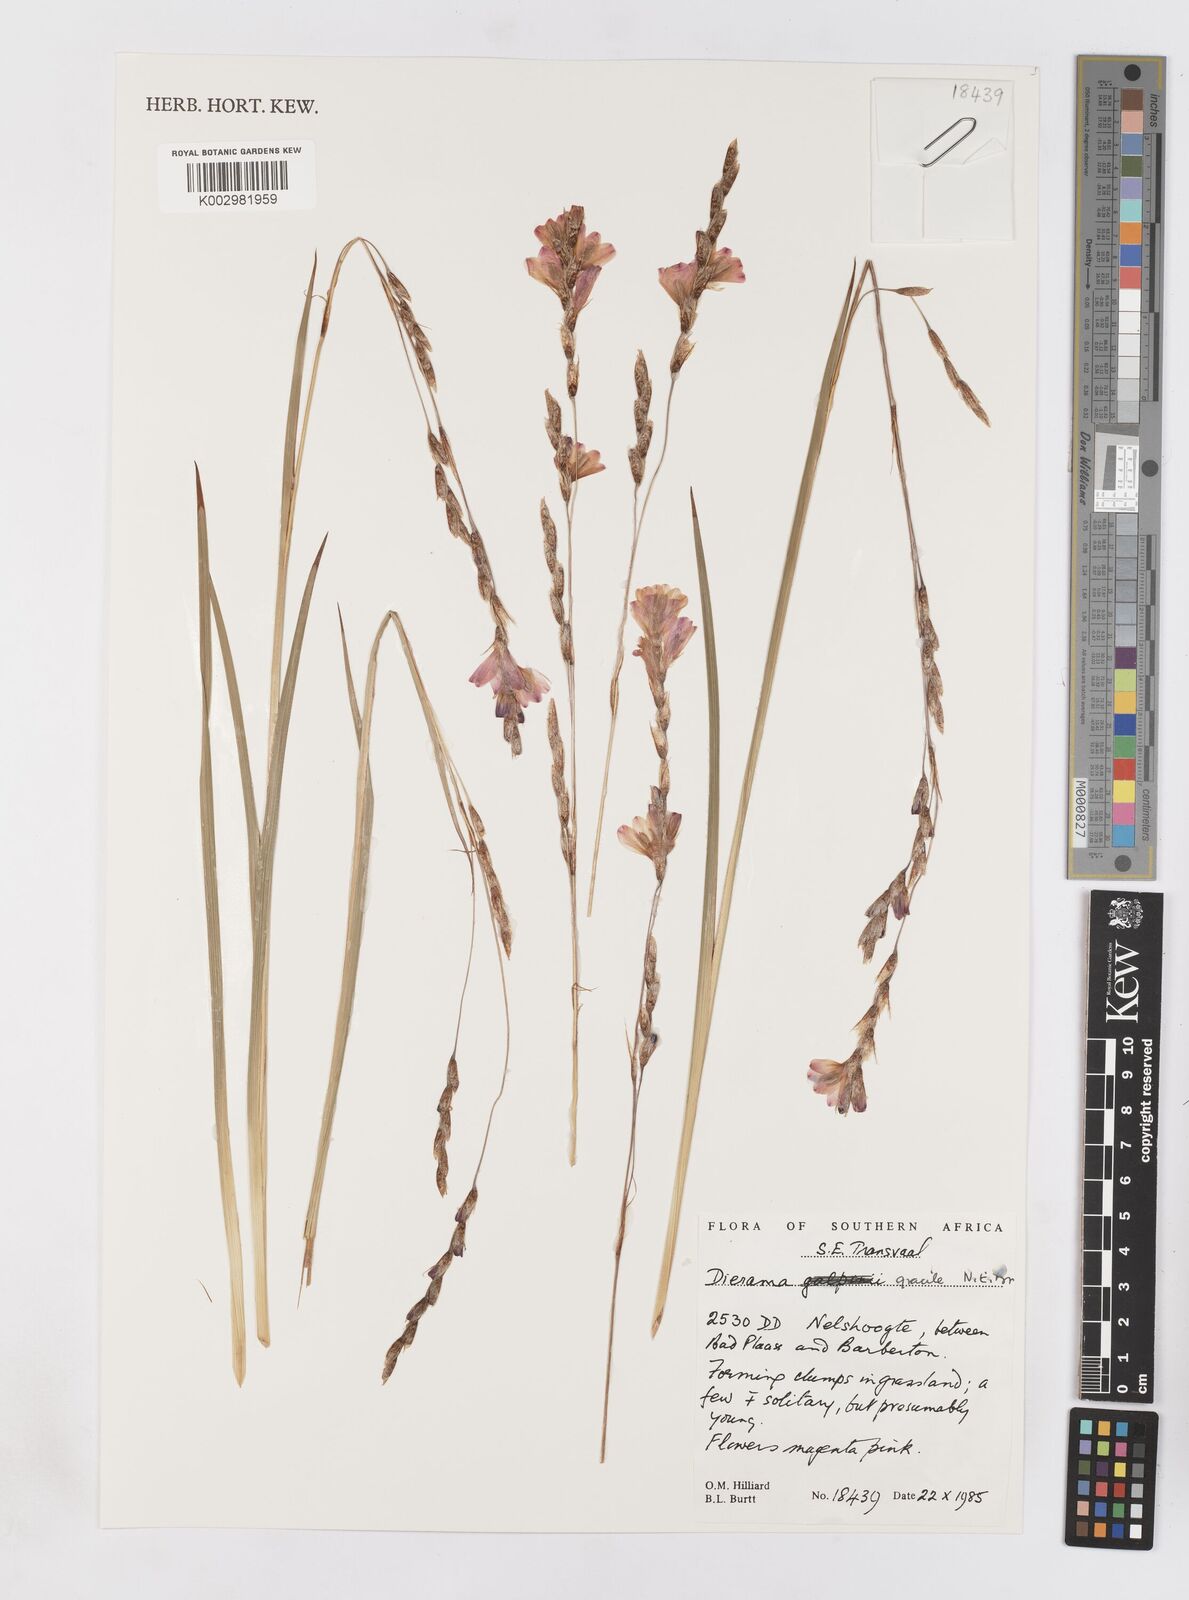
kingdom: Plantae
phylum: Tracheophyta
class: Liliopsida
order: Asparagales
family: Iridaceae
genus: Dierama
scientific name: Dierama gracile
